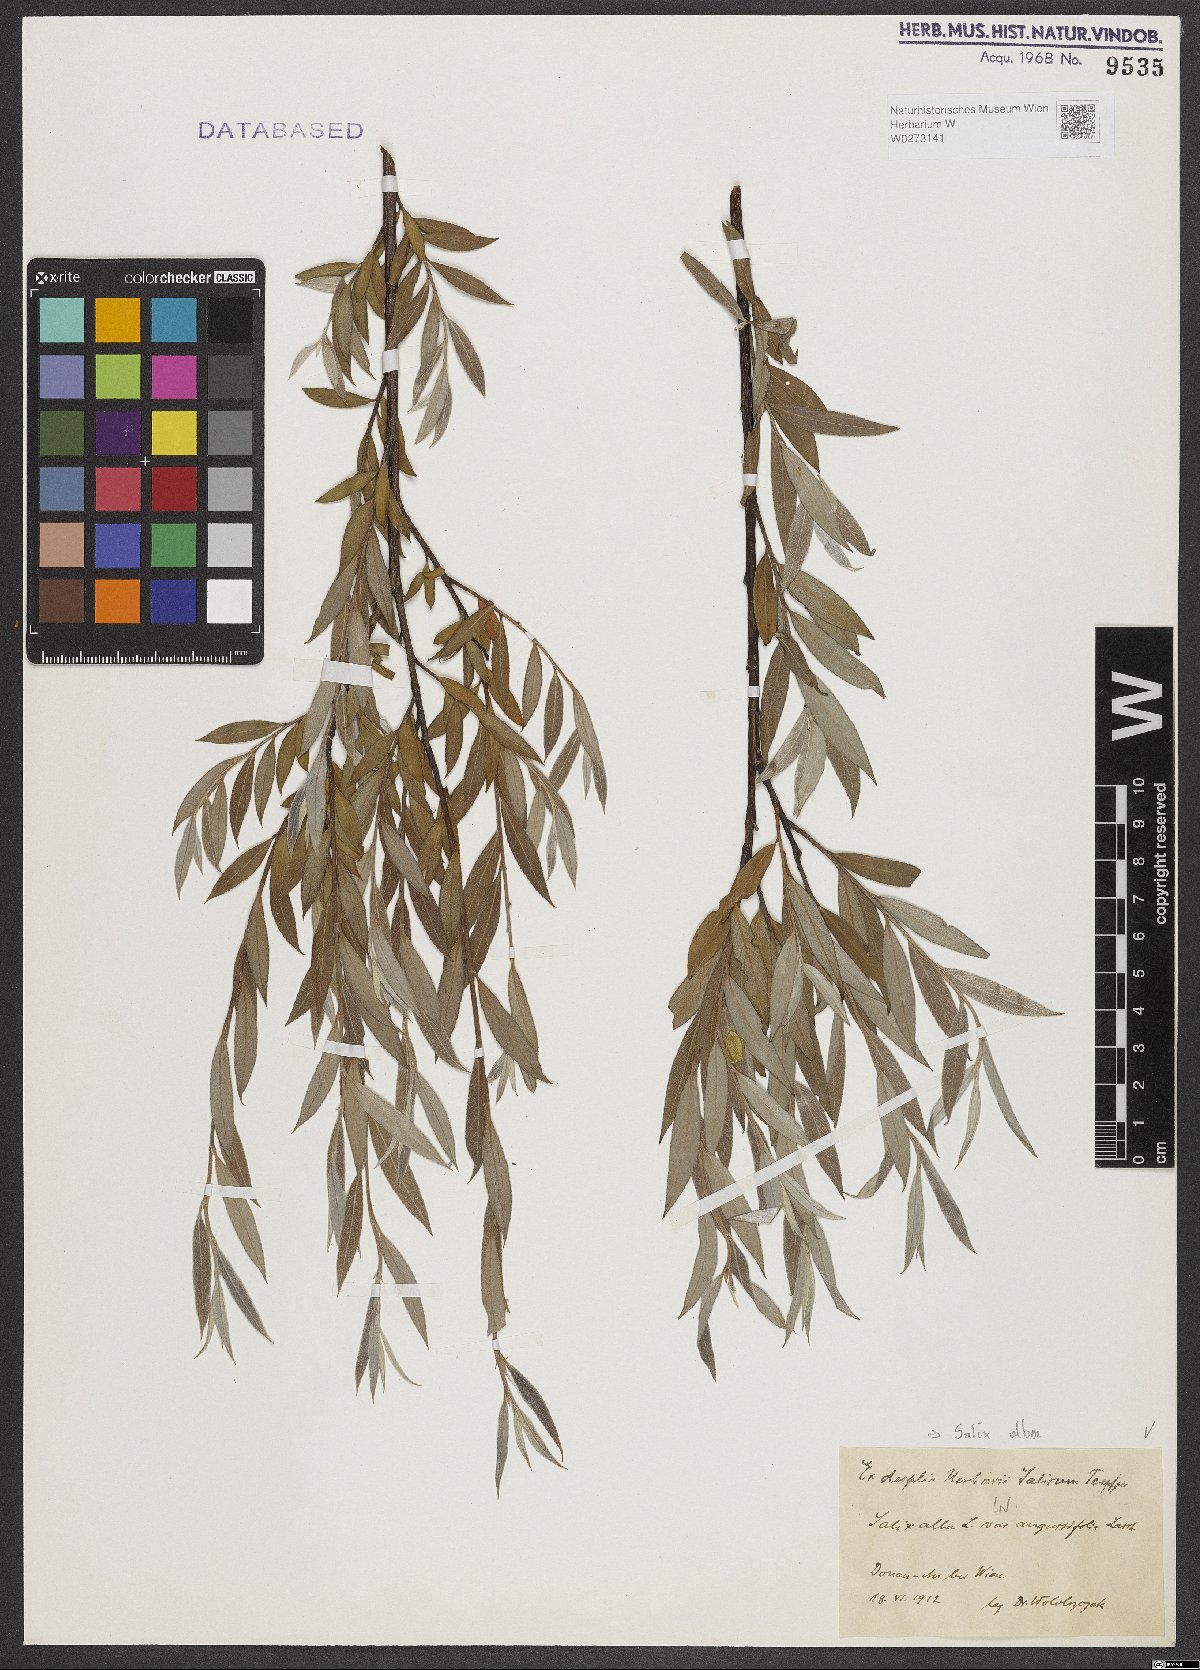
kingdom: Plantae
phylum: Tracheophyta
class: Magnoliopsida
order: Malpighiales
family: Salicaceae
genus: Salix
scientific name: Salix alba
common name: White willow
